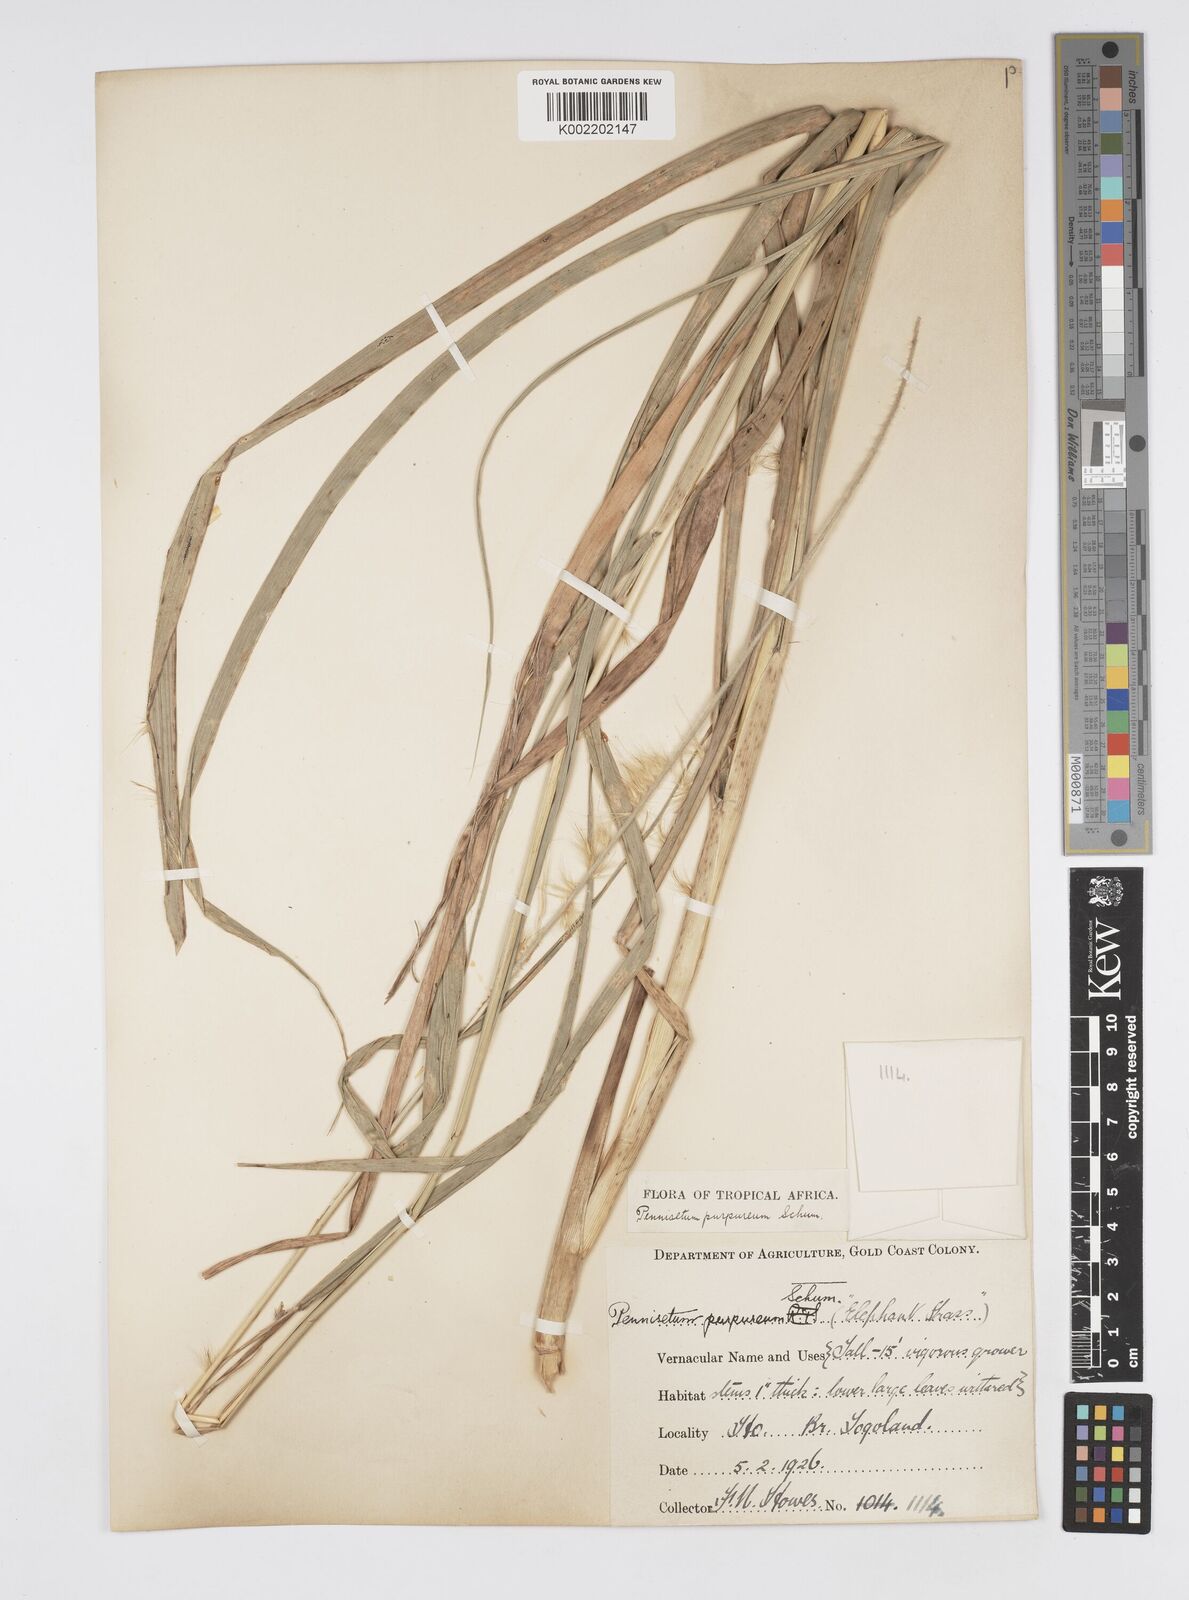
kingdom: Plantae
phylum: Tracheophyta
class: Liliopsida
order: Poales
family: Poaceae
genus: Cenchrus
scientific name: Cenchrus purpureus
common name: Elephant grass
